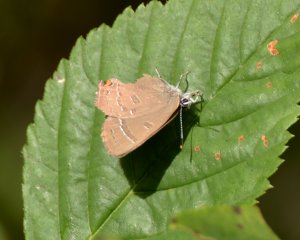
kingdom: Animalia
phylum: Arthropoda
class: Insecta
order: Lepidoptera
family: Lycaenidae
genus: Satyrium
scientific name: Satyrium calanus
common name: Banded Hairstreak
